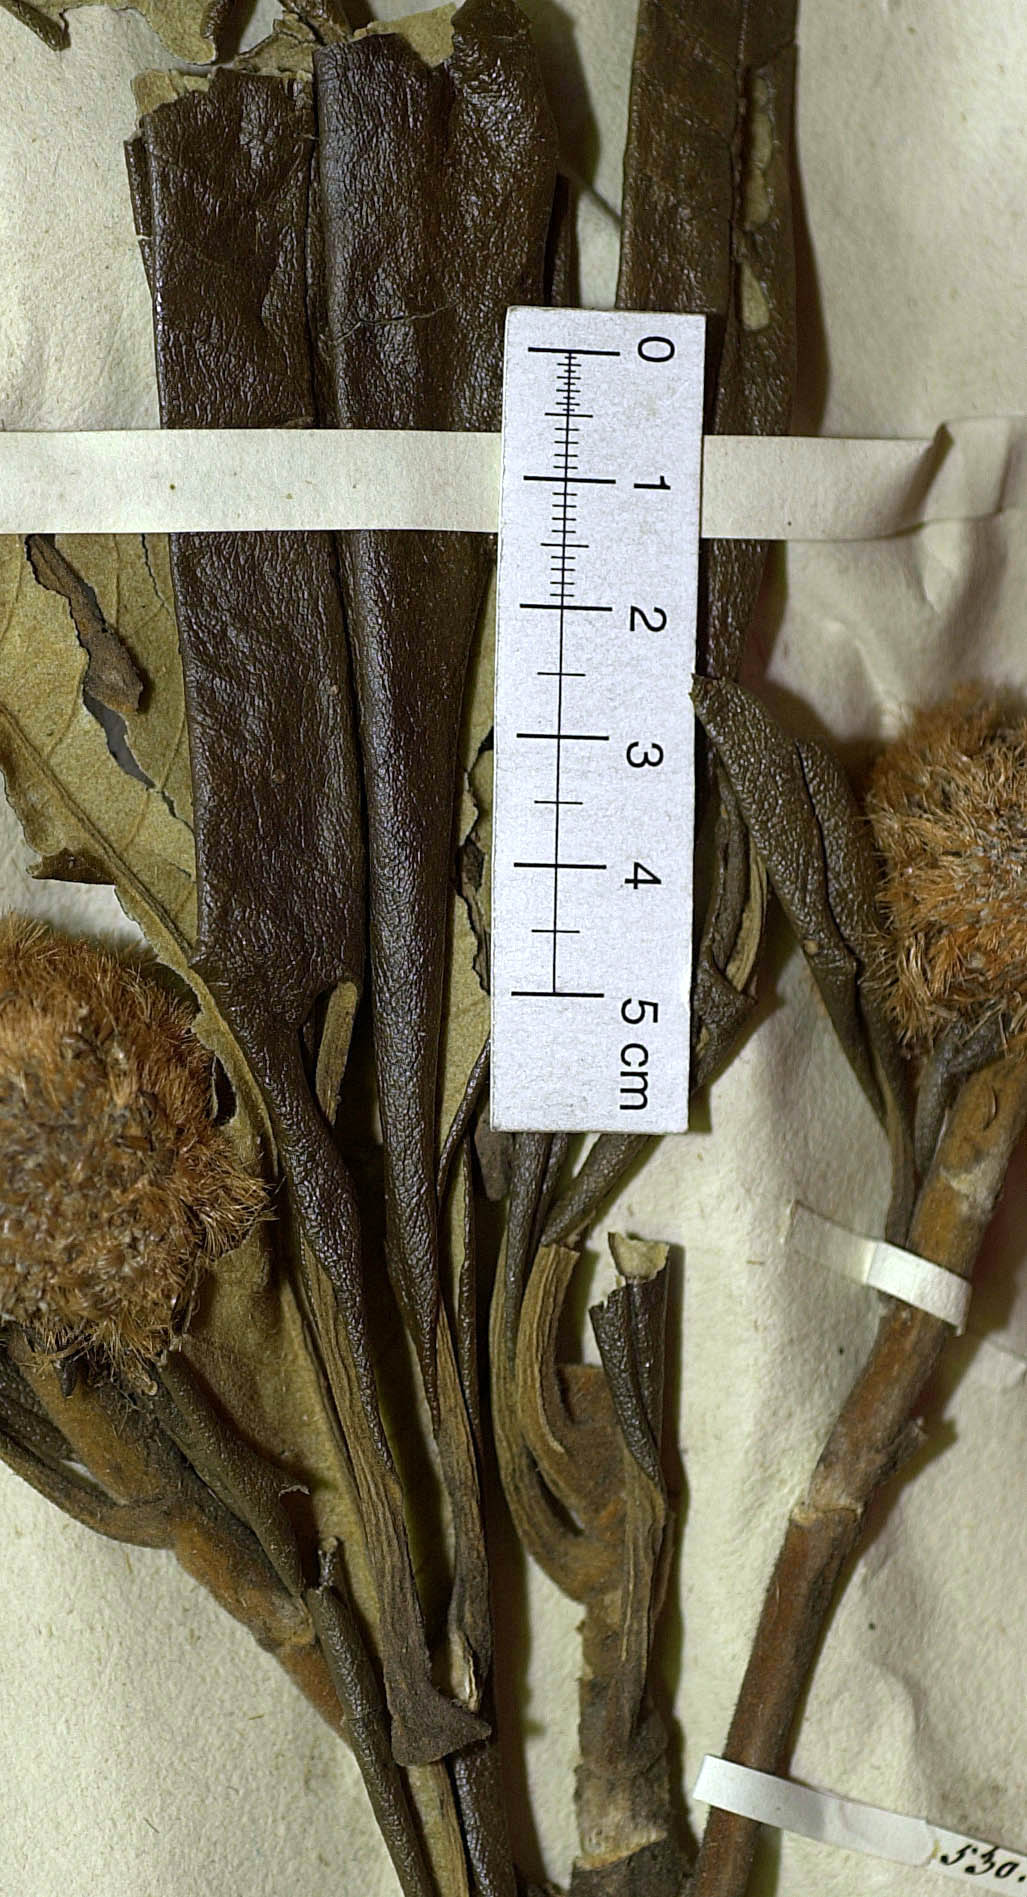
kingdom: Plantae
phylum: Tracheophyta
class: Magnoliopsida
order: Asterales
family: Asteraceae
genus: Paralychnophora
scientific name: Paralychnophora bicolor
